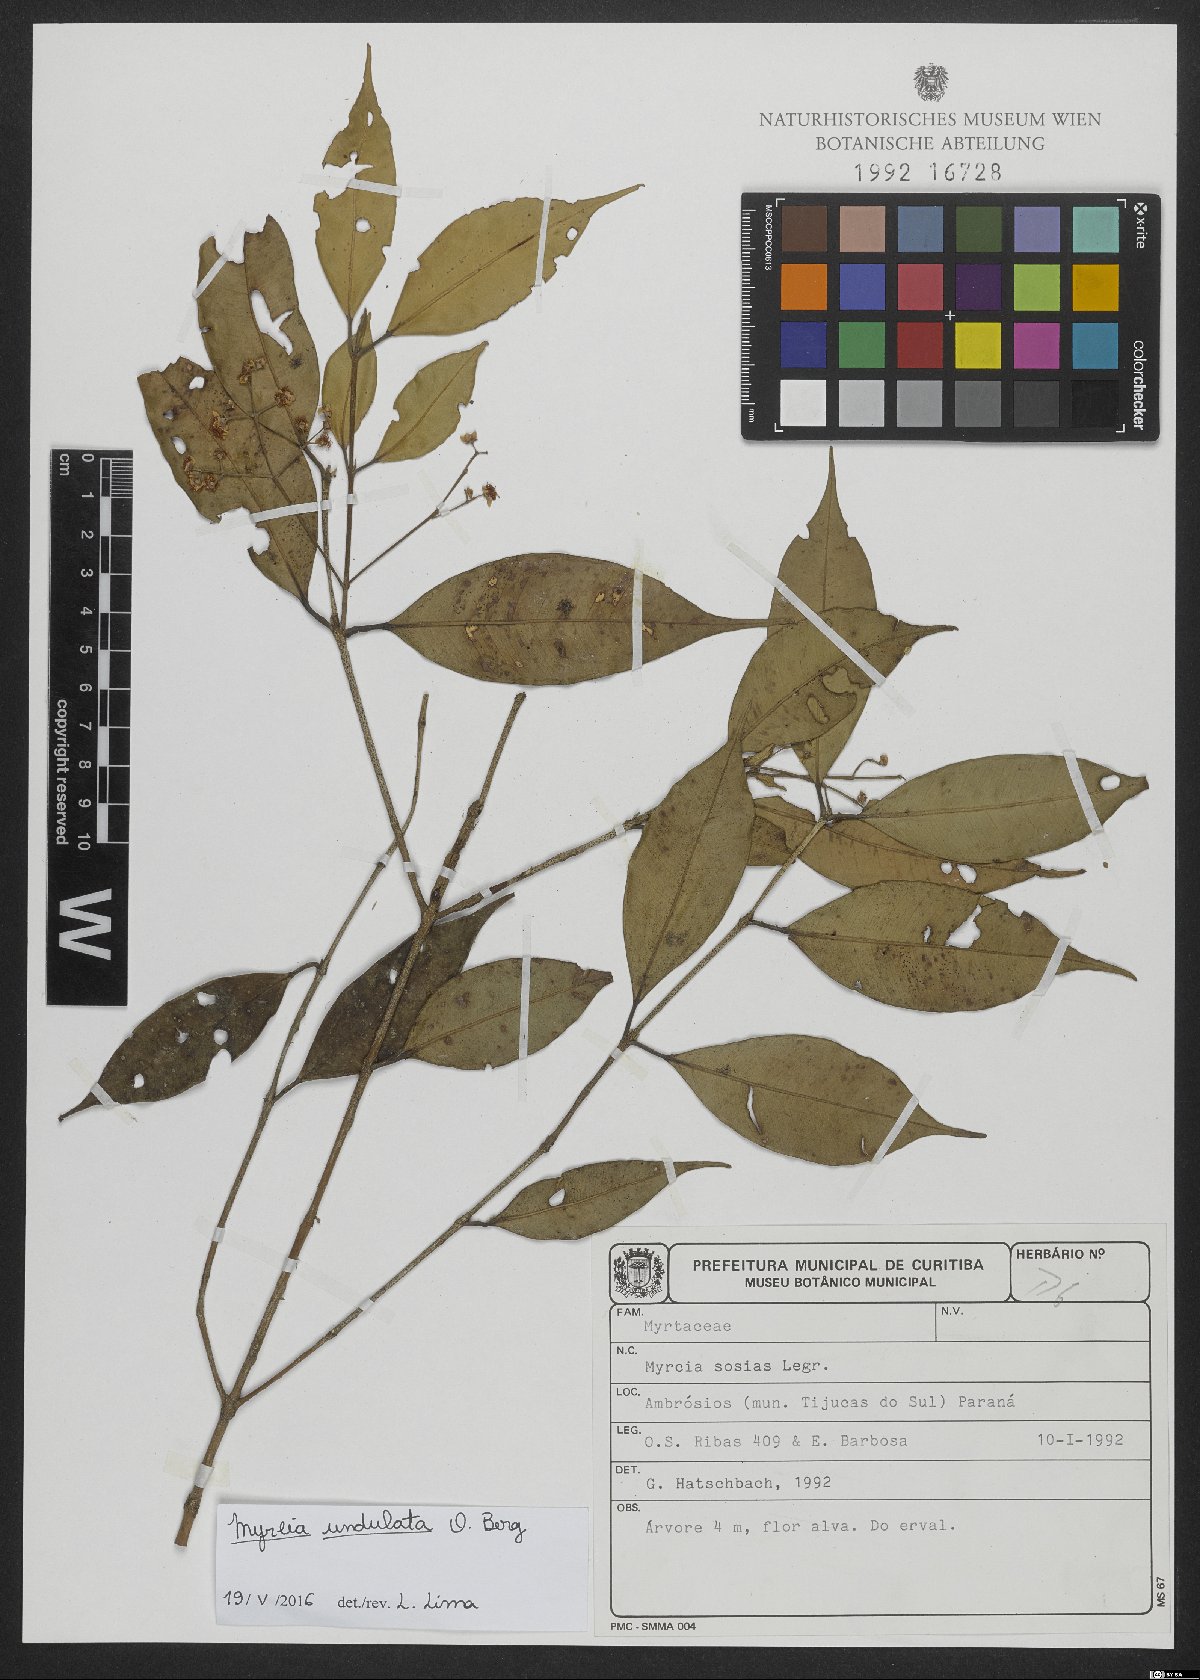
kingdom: Plantae
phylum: Tracheophyta
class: Magnoliopsida
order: Myrtales
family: Myrtaceae
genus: Myrcia
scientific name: Myrcia undulata
